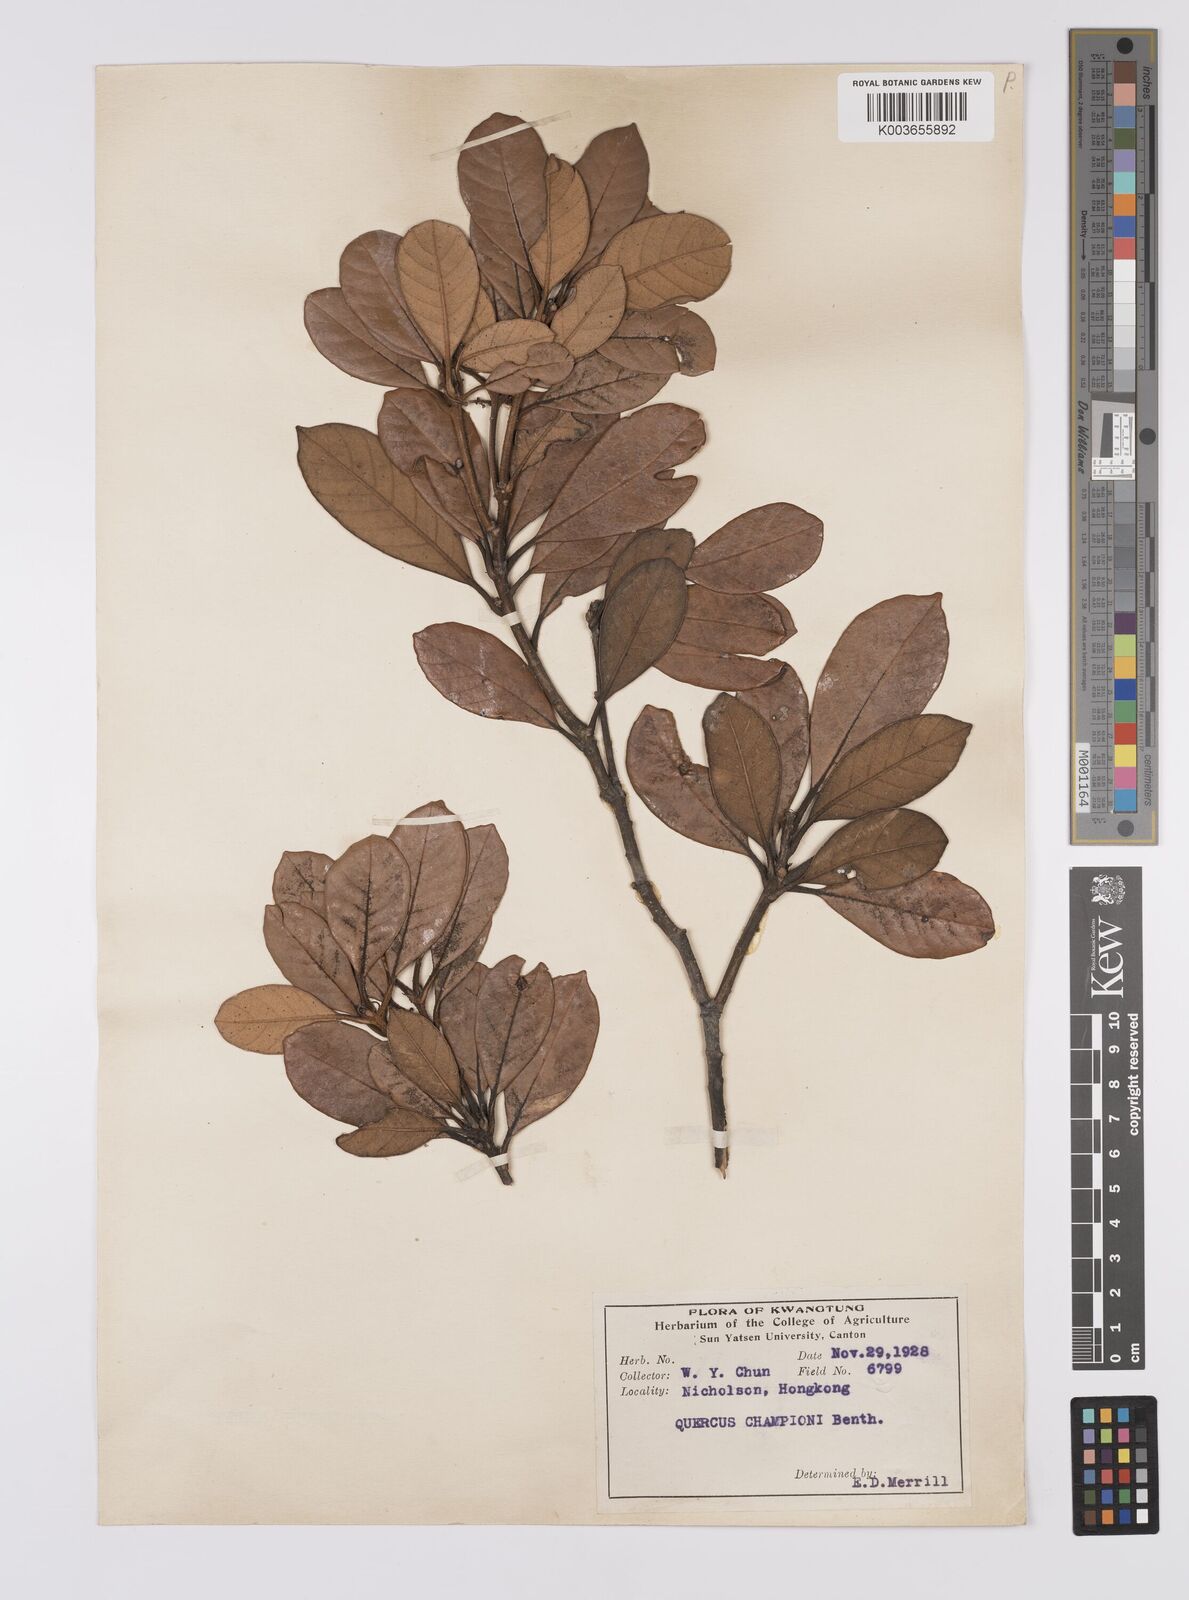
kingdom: Plantae
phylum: Tracheophyta
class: Magnoliopsida
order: Fagales
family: Fagaceae
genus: Quercus
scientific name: Quercus championii
